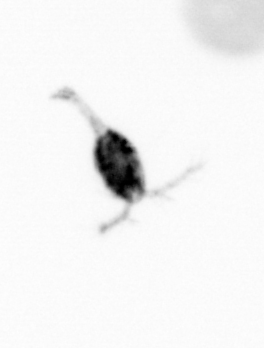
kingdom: Animalia
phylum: Arthropoda
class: Copepoda
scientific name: Copepoda
